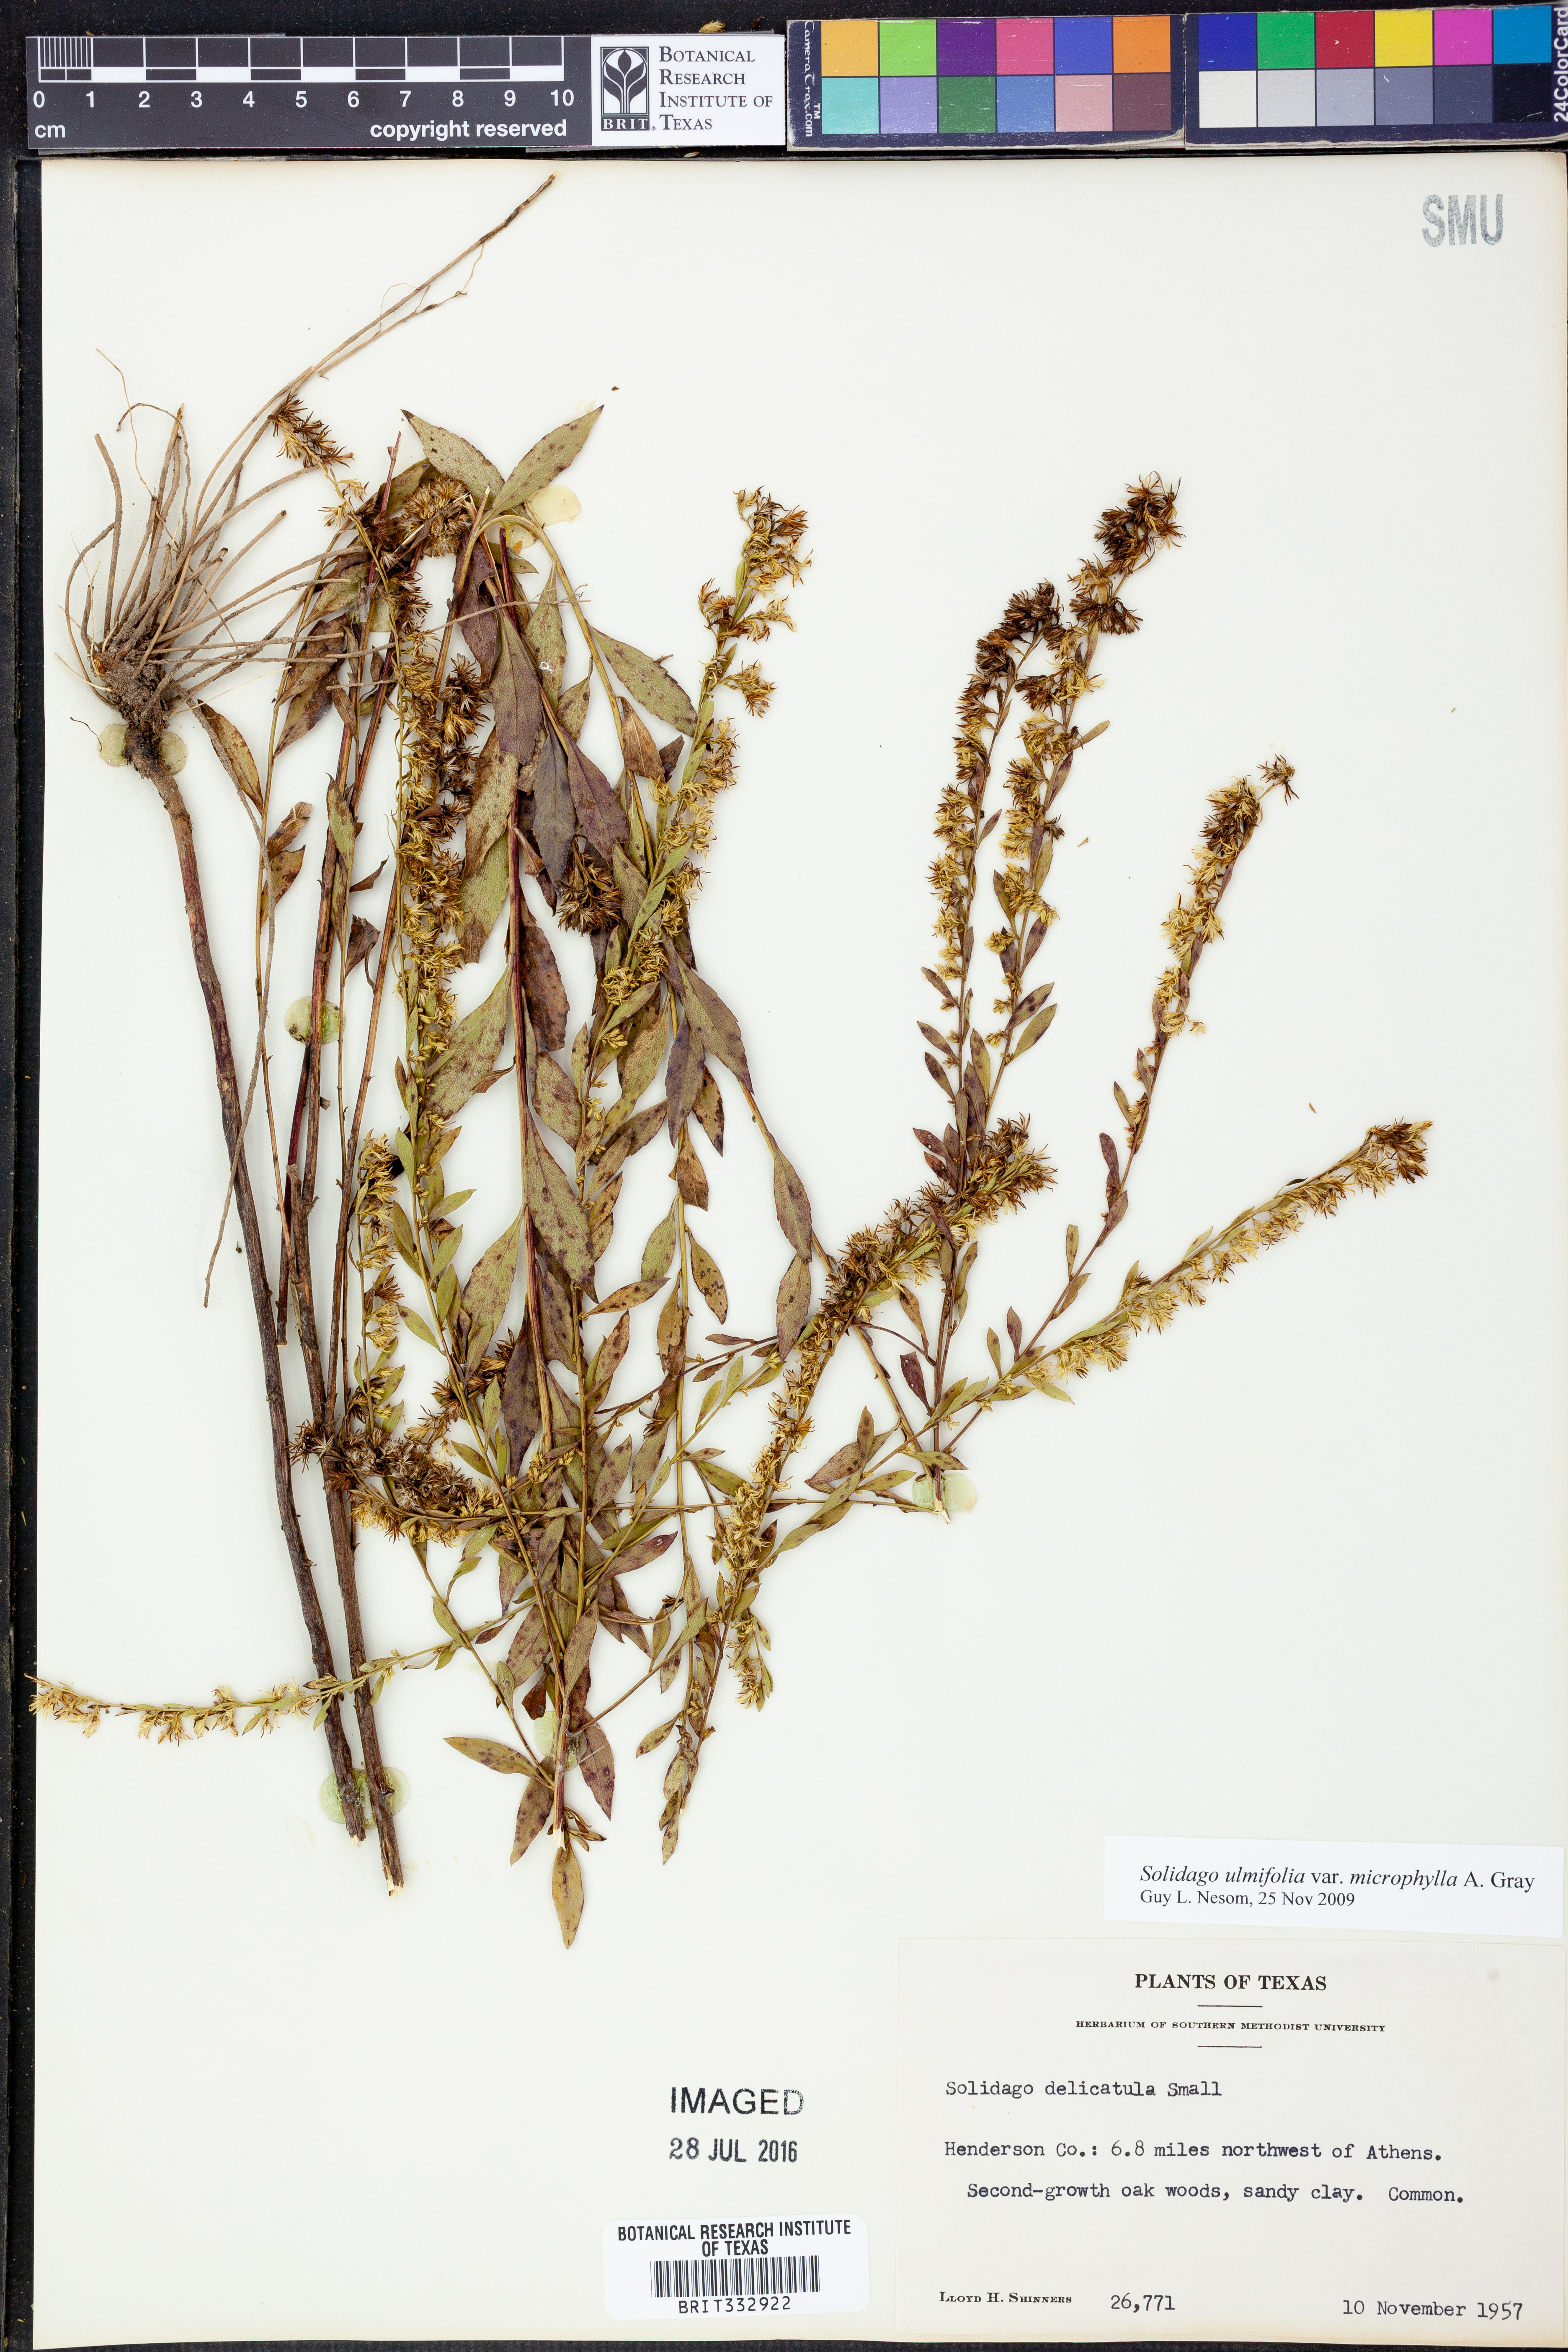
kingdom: Plantae
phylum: Tracheophyta
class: Magnoliopsida
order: Asterales
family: Asteraceae
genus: Solidago
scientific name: Solidago delicatula
